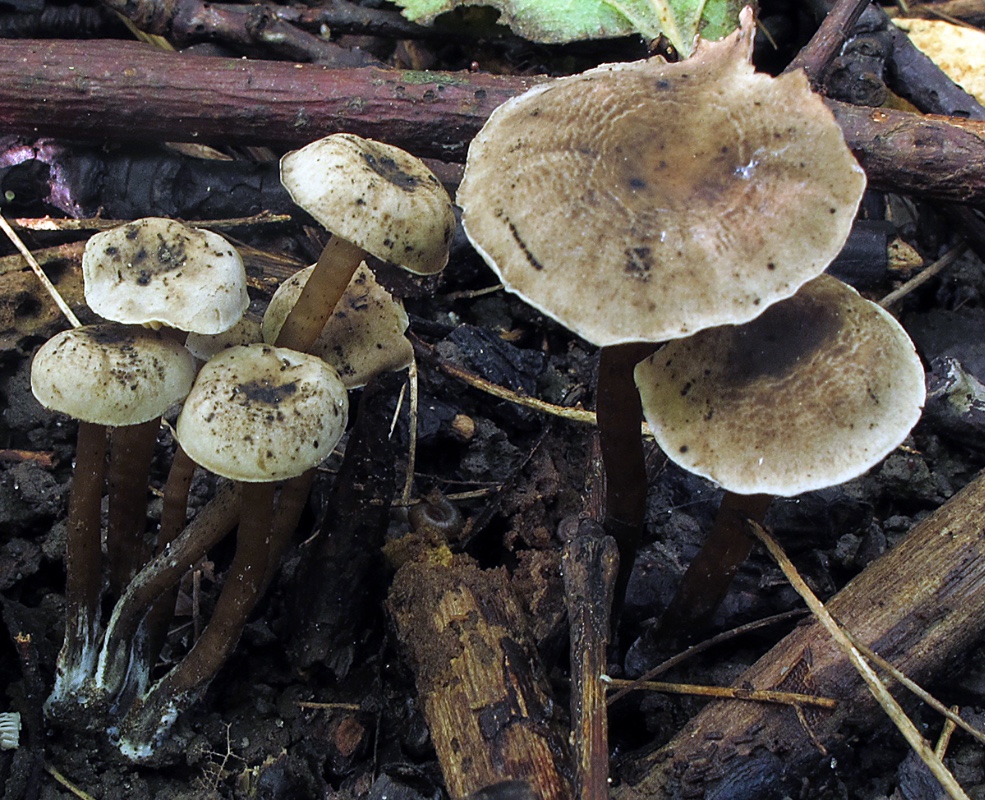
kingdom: Fungi
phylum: Basidiomycota
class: Agaricomycetes
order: Agaricales
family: Clavariaceae
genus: Hodophilus
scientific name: Hodophilus foetens
